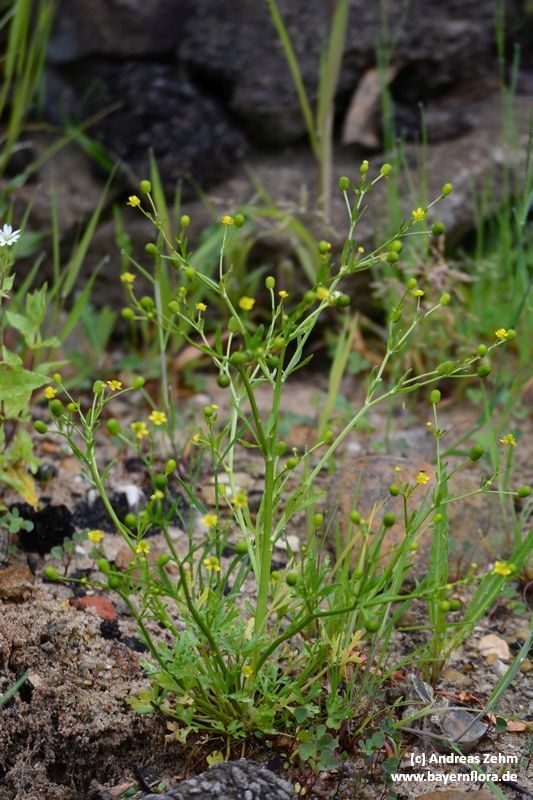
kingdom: Plantae
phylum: Tracheophyta
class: Magnoliopsida
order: Ranunculales
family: Ranunculaceae
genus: Ranunculus
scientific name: Ranunculus sceleratus
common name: Celery-leaved buttercup
